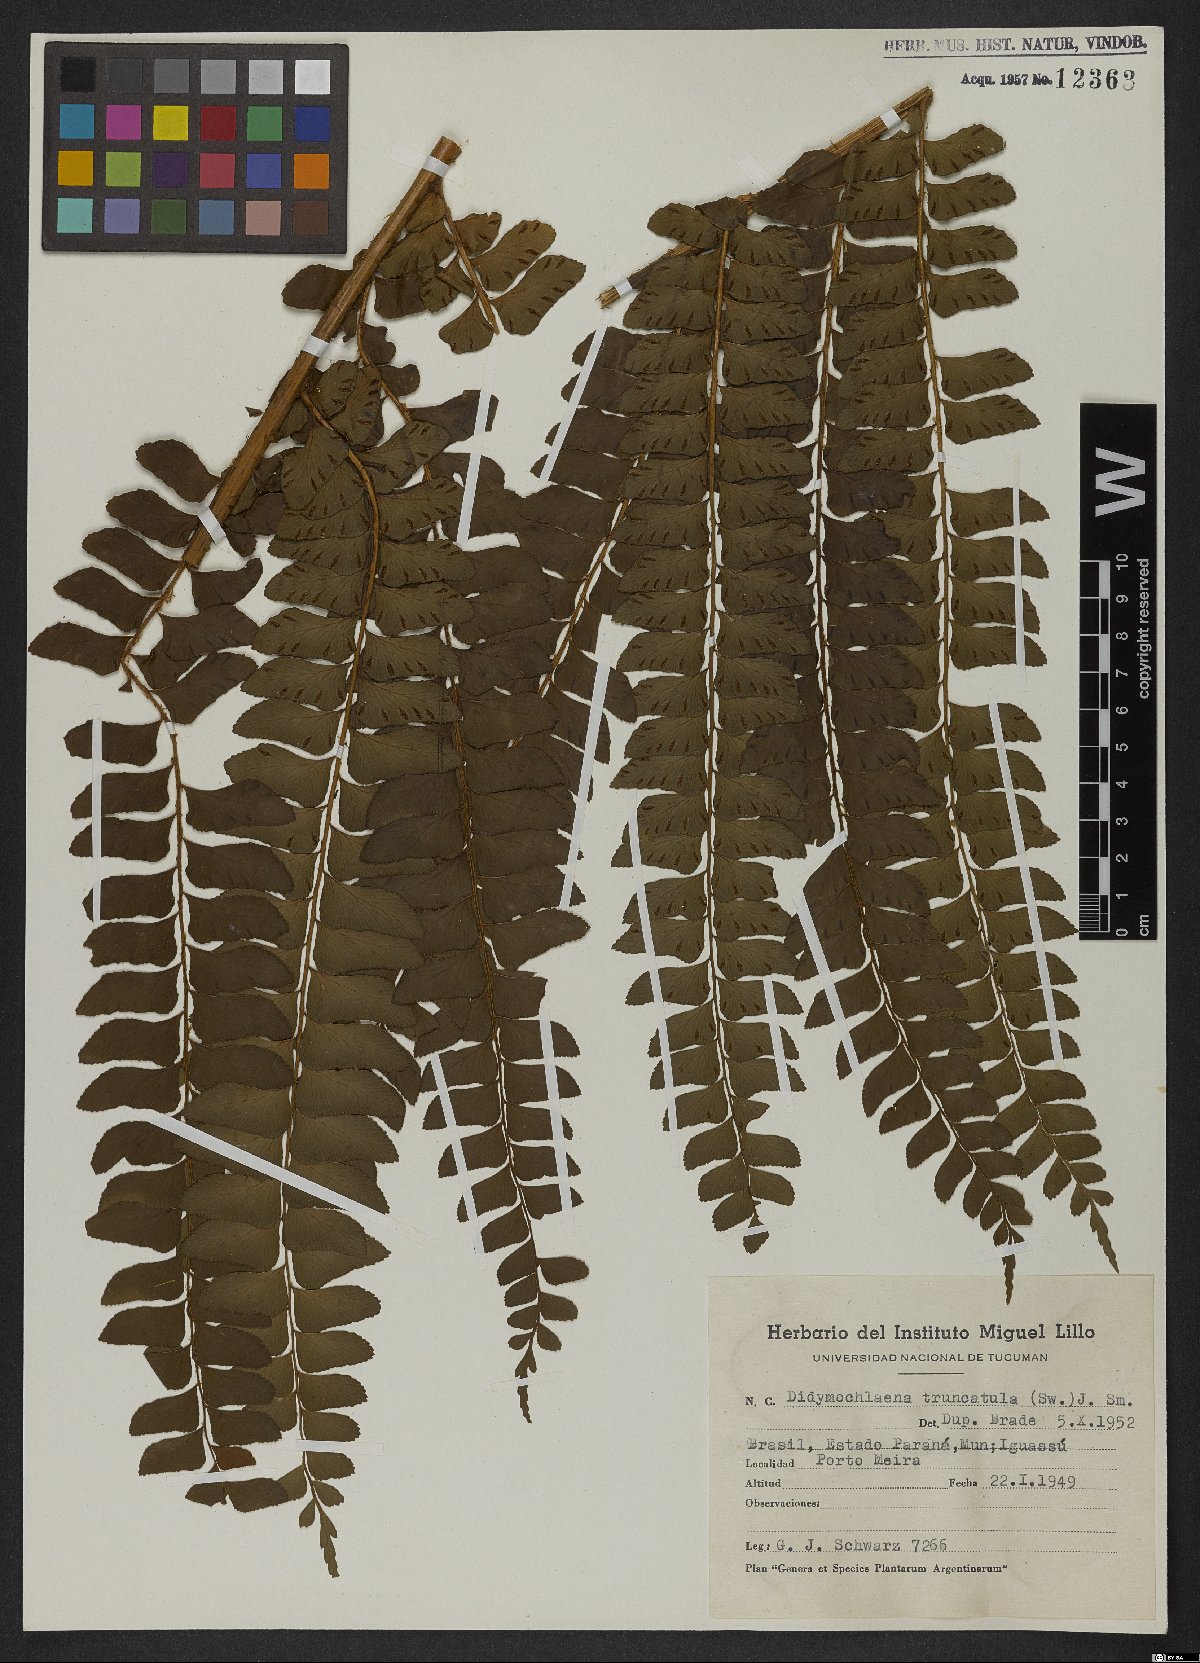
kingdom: Plantae
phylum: Tracheophyta
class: Polypodiopsida
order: Polypodiales
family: Didymochlaenaceae
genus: Didymochlaena
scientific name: Didymochlaena truncatula
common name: Mahogany fern
